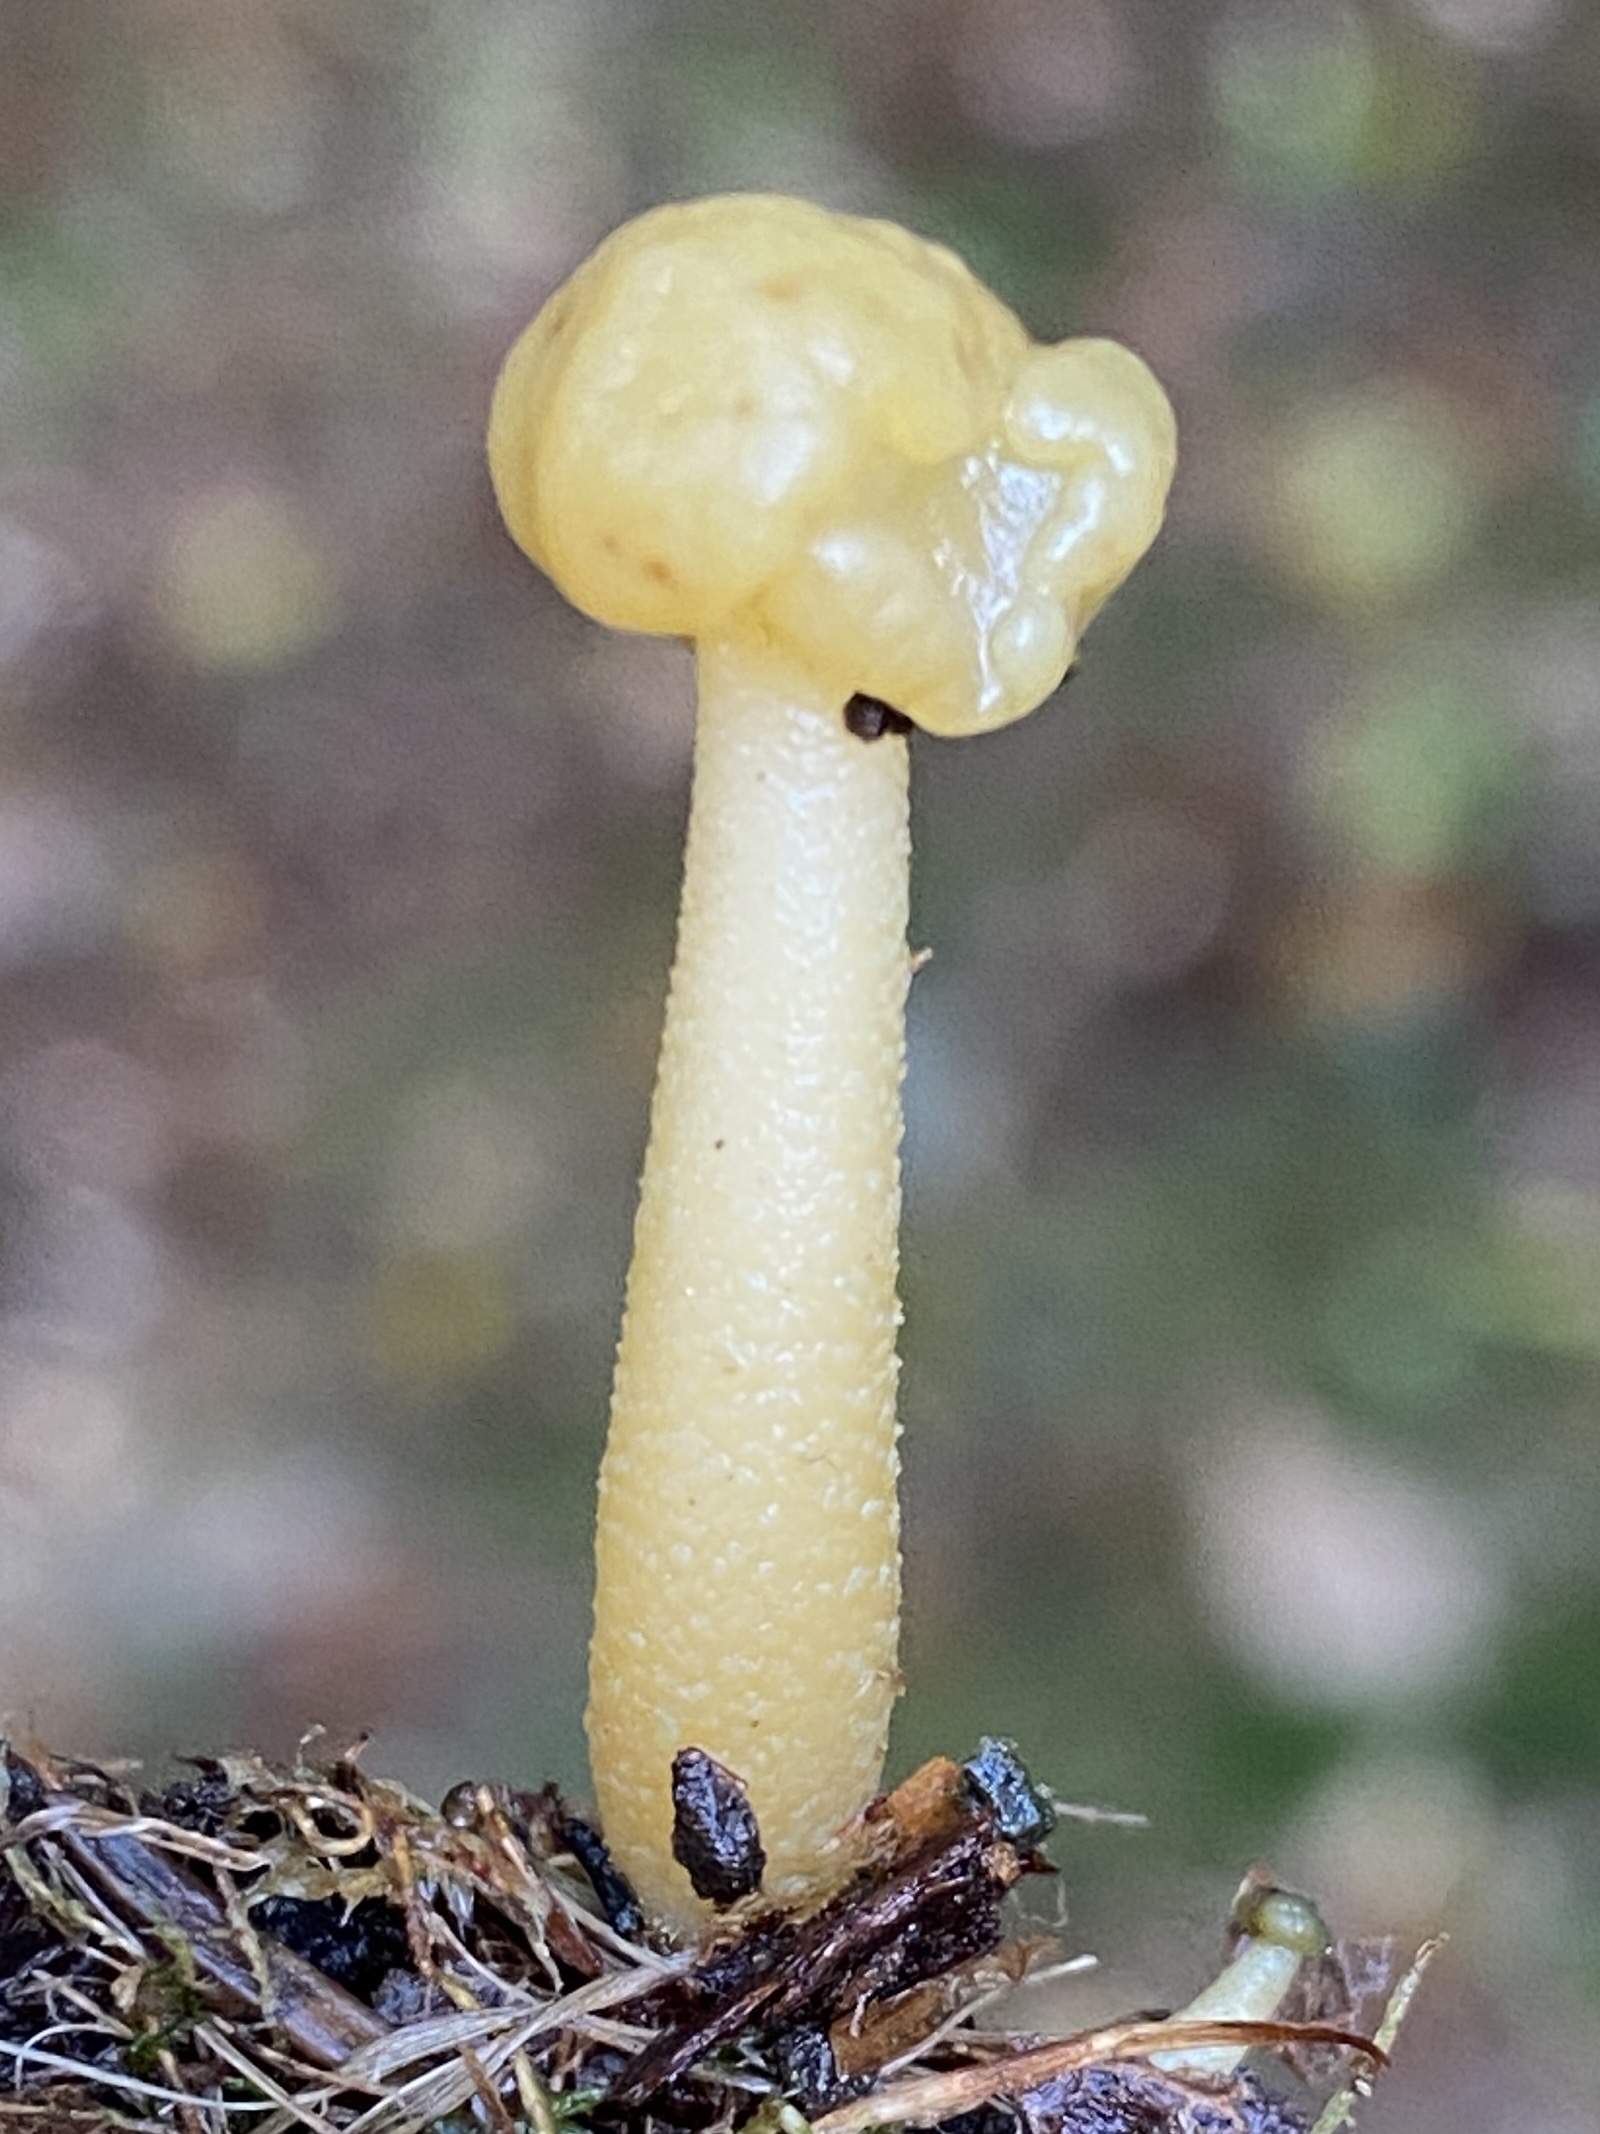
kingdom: Fungi
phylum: Ascomycota
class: Leotiomycetes
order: Leotiales
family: Leotiaceae
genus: Leotia
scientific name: Leotia lubrica
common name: ravsvamp
